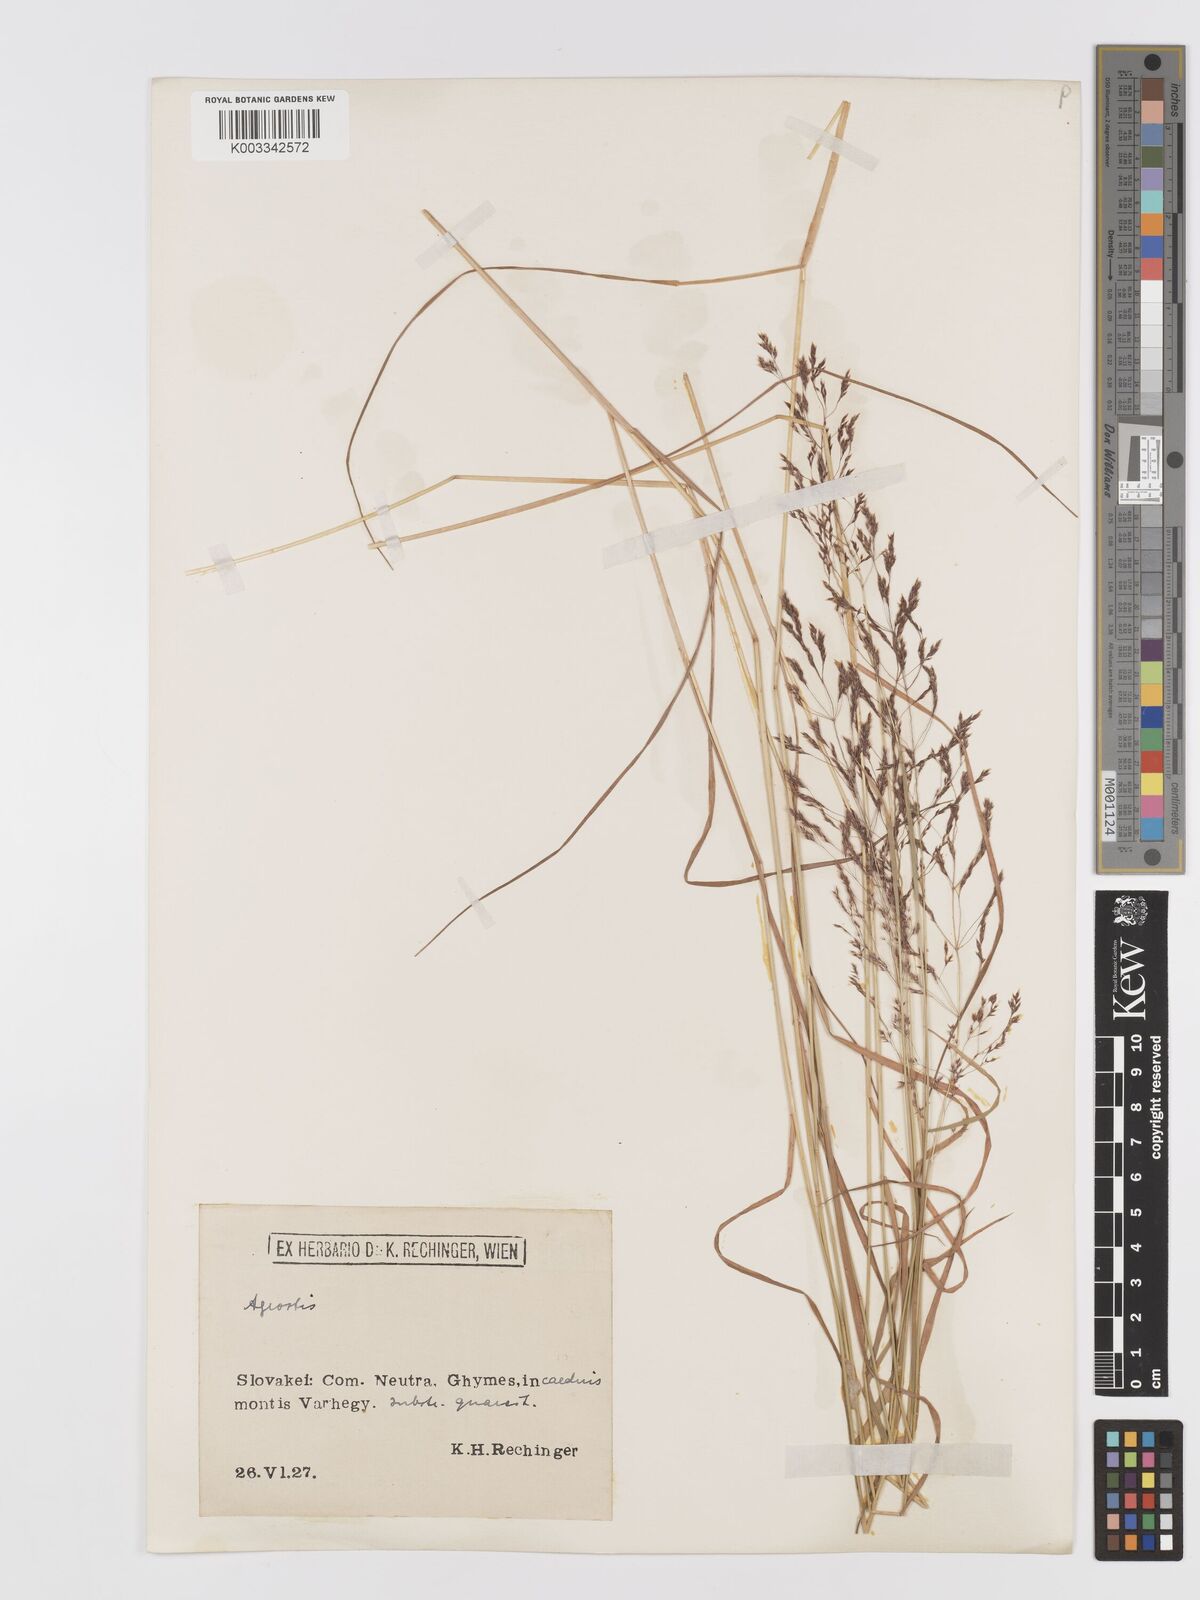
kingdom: Plantae
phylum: Tracheophyta
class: Liliopsida
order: Poales
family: Poaceae
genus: Agrostis
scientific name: Agrostis
